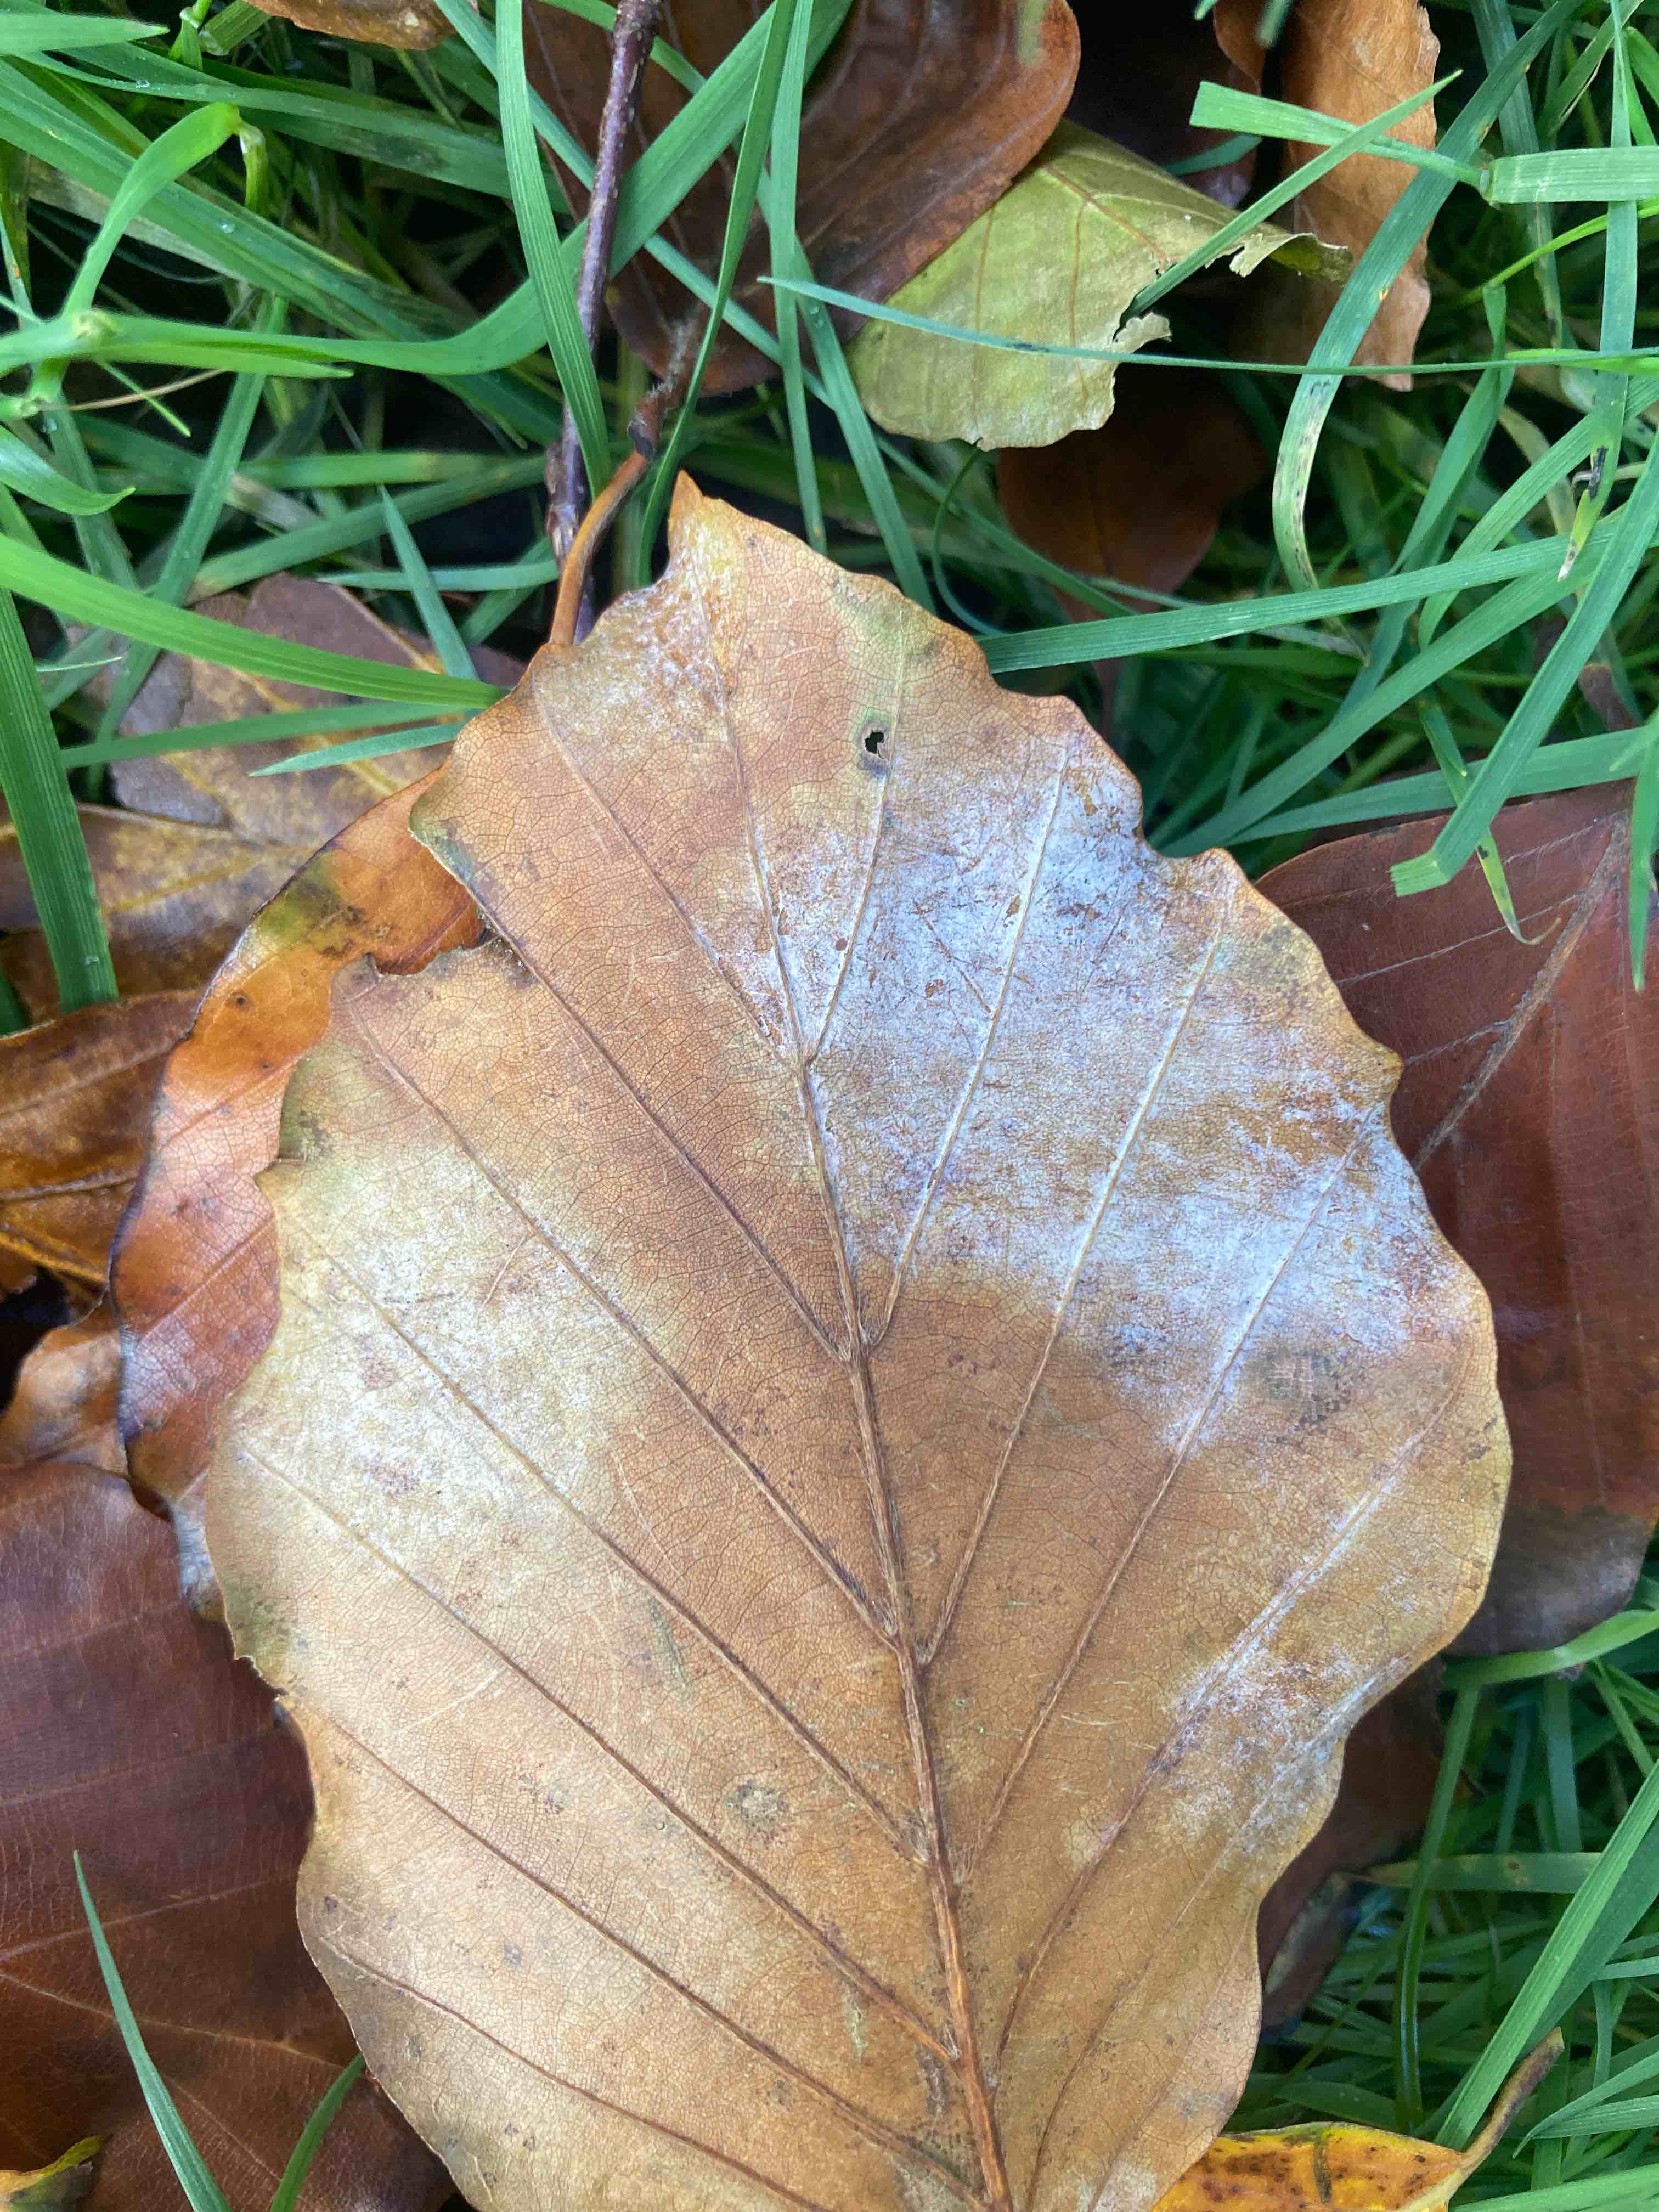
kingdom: Fungi
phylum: Ascomycota
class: Leotiomycetes
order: Helotiales
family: Erysiphaceae
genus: Phyllactinia
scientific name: Phyllactinia orbicularis
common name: bøge-meldug
